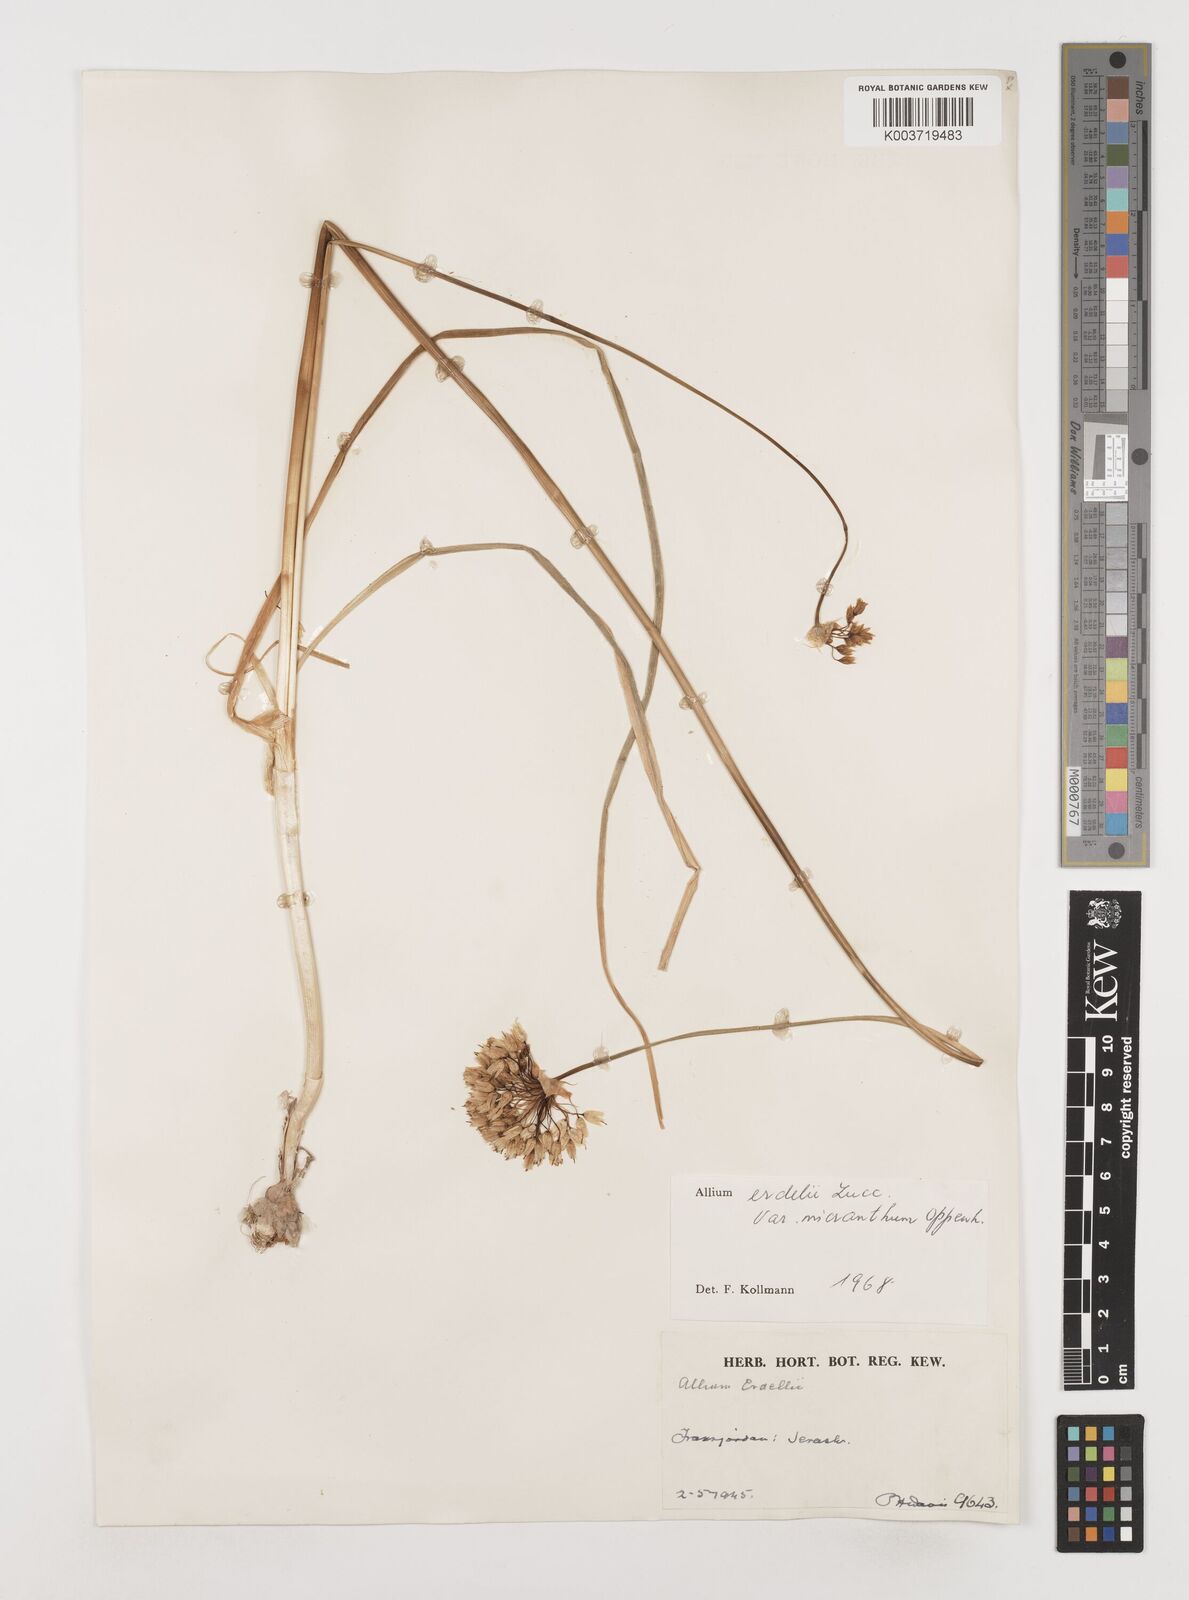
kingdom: Plantae
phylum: Tracheophyta
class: Liliopsida
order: Asparagales
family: Amaryllidaceae
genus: Allium
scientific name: Allium orientale
